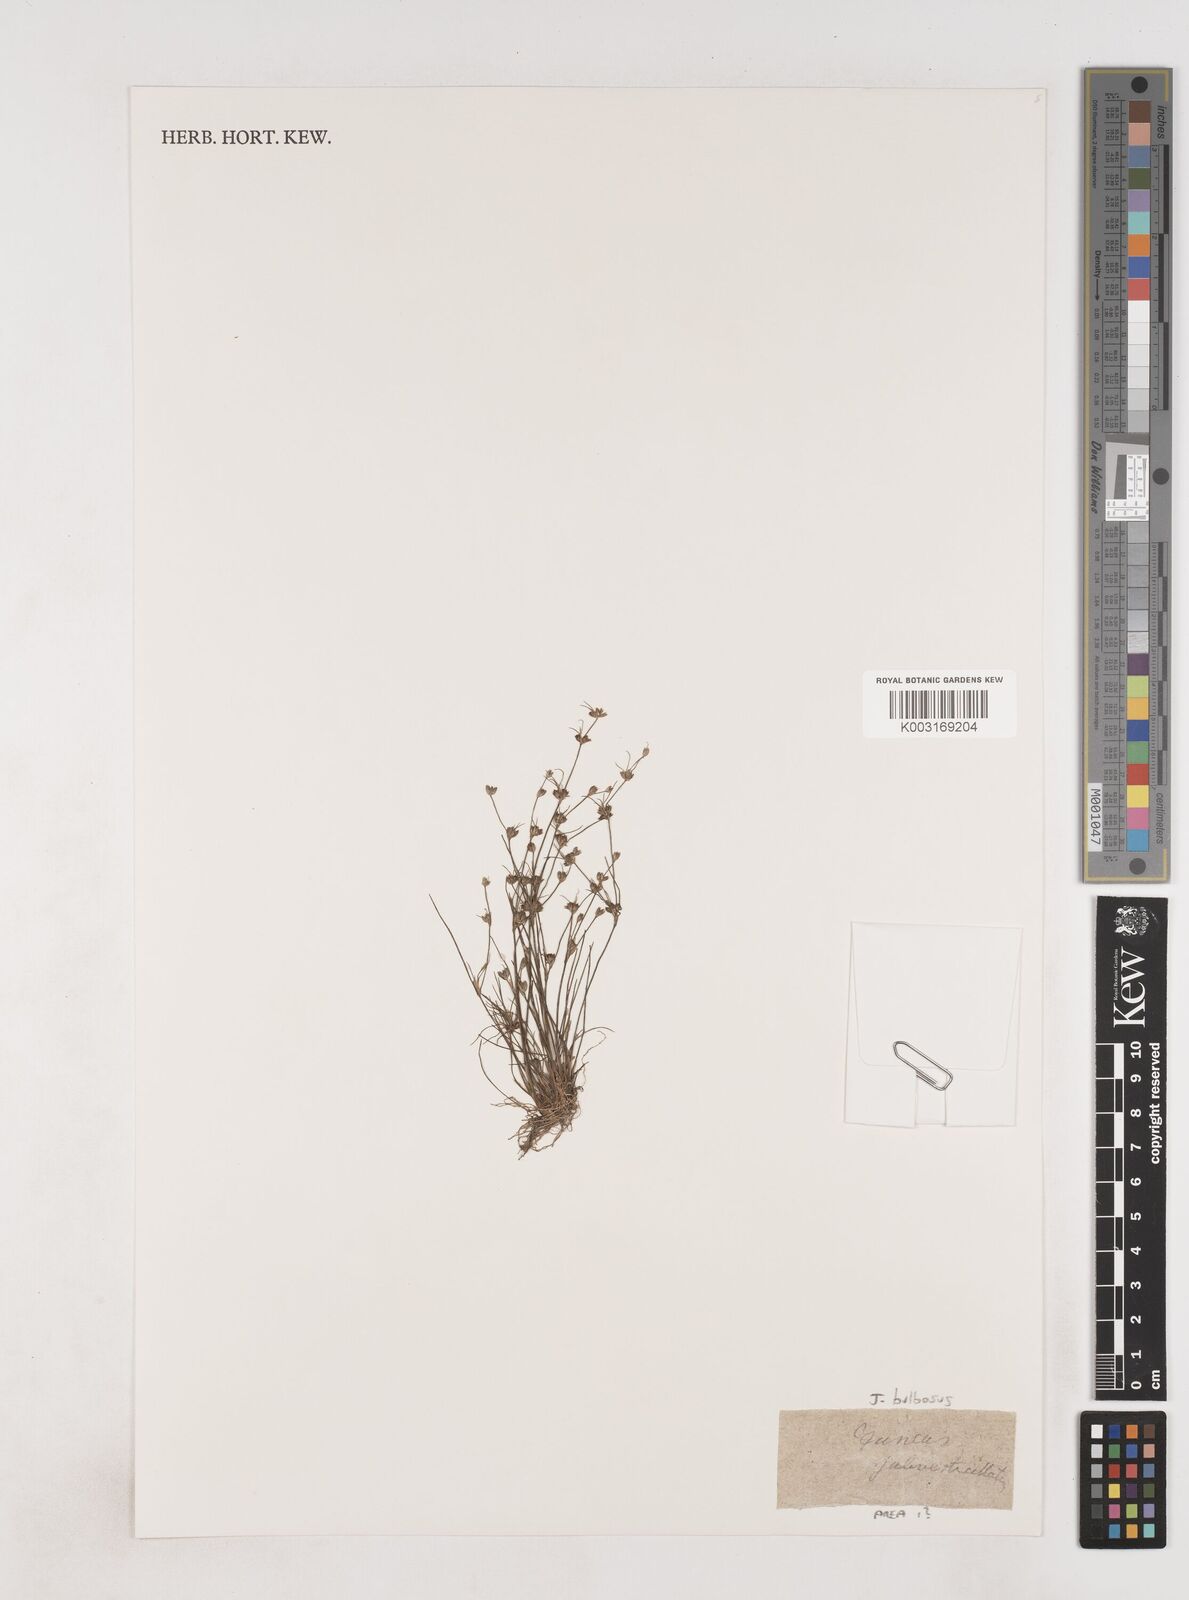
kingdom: Plantae
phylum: Tracheophyta
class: Liliopsida
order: Poales
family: Juncaceae
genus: Juncus
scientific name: Juncus bulbosus
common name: Bulbous rush
